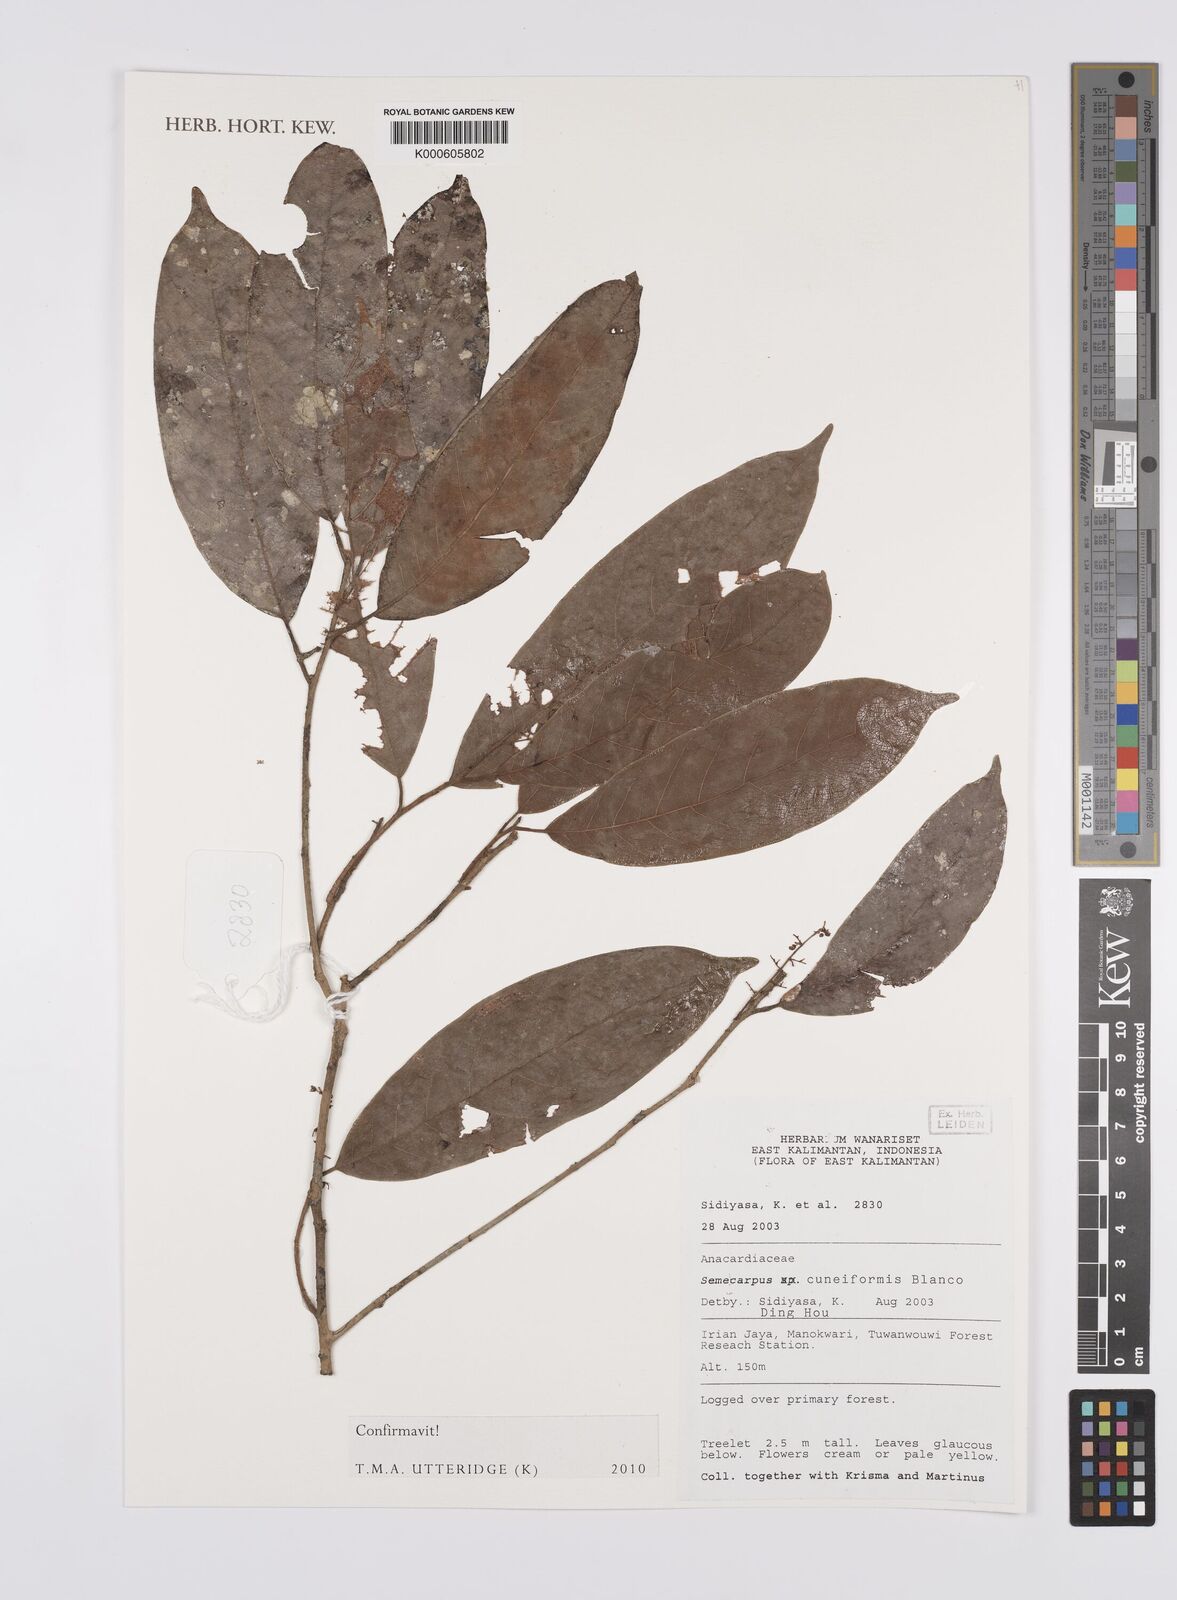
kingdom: Plantae
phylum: Tracheophyta
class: Magnoliopsida
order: Sapindales
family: Anacardiaceae
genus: Semecarpus
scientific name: Semecarpus cuneiformis
